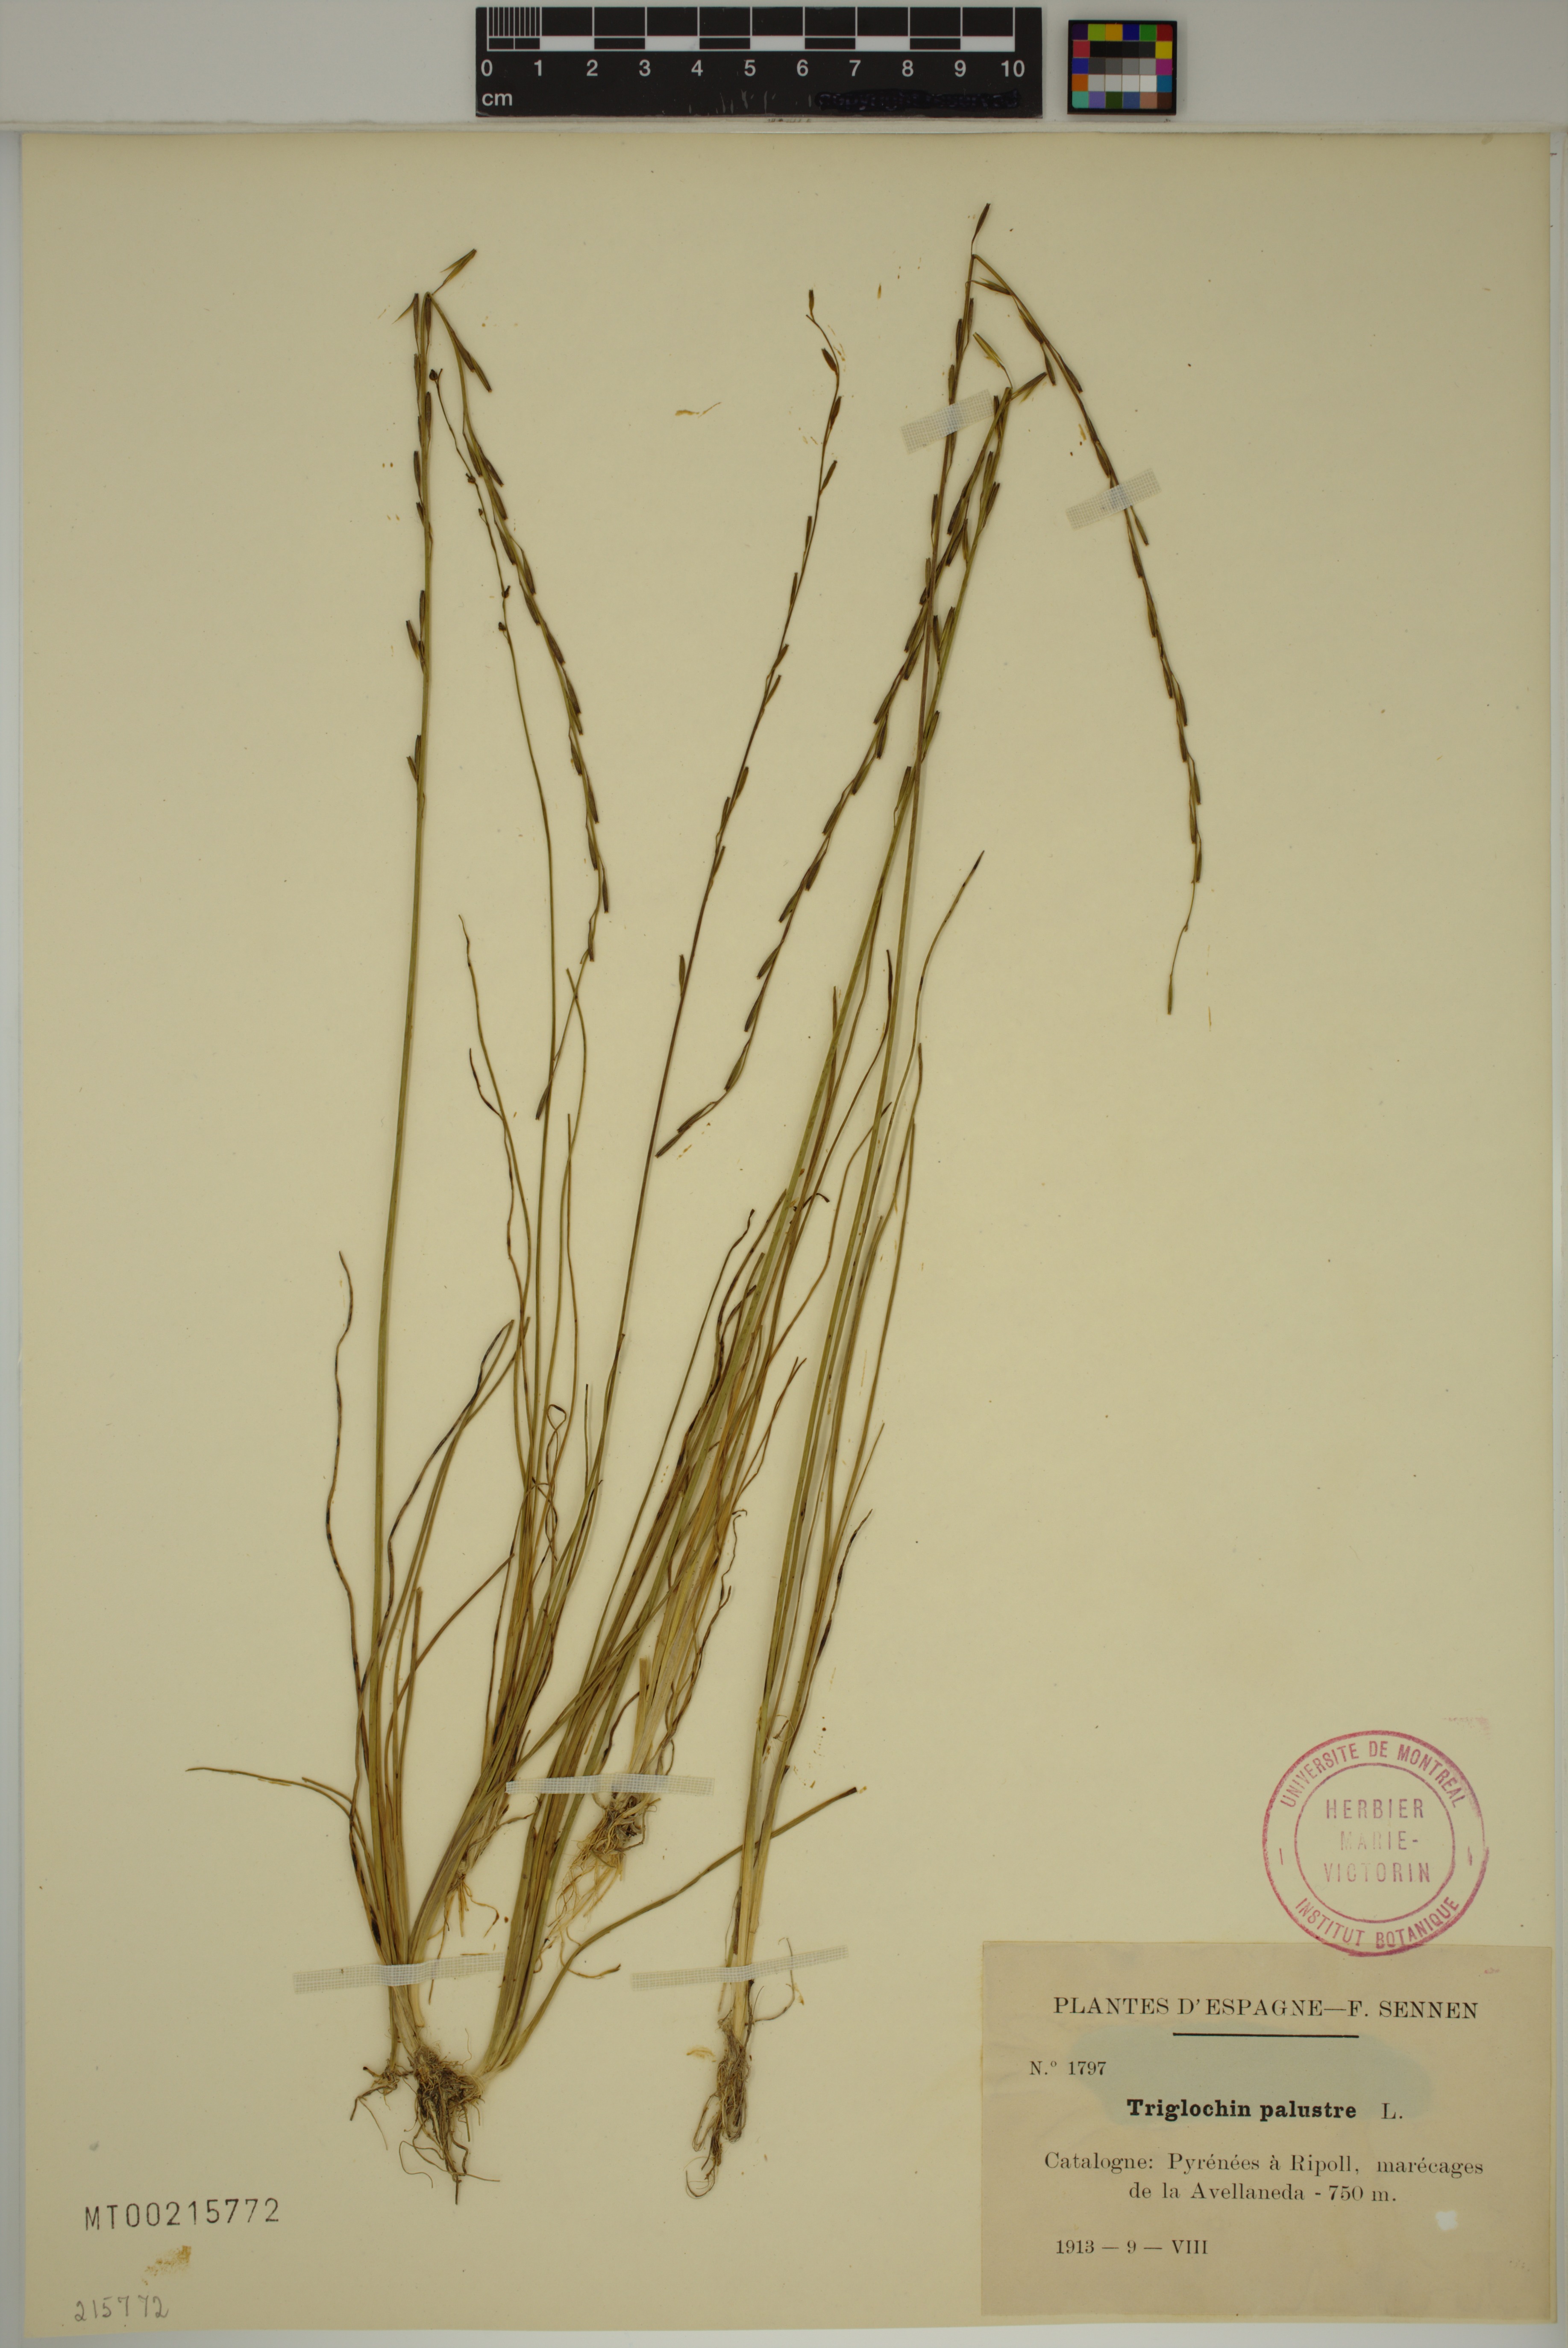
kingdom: Plantae
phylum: Tracheophyta
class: Liliopsida
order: Alismatales
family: Juncaginaceae
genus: Triglochin
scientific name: Triglochin palustris
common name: Marsh arrowgrass
